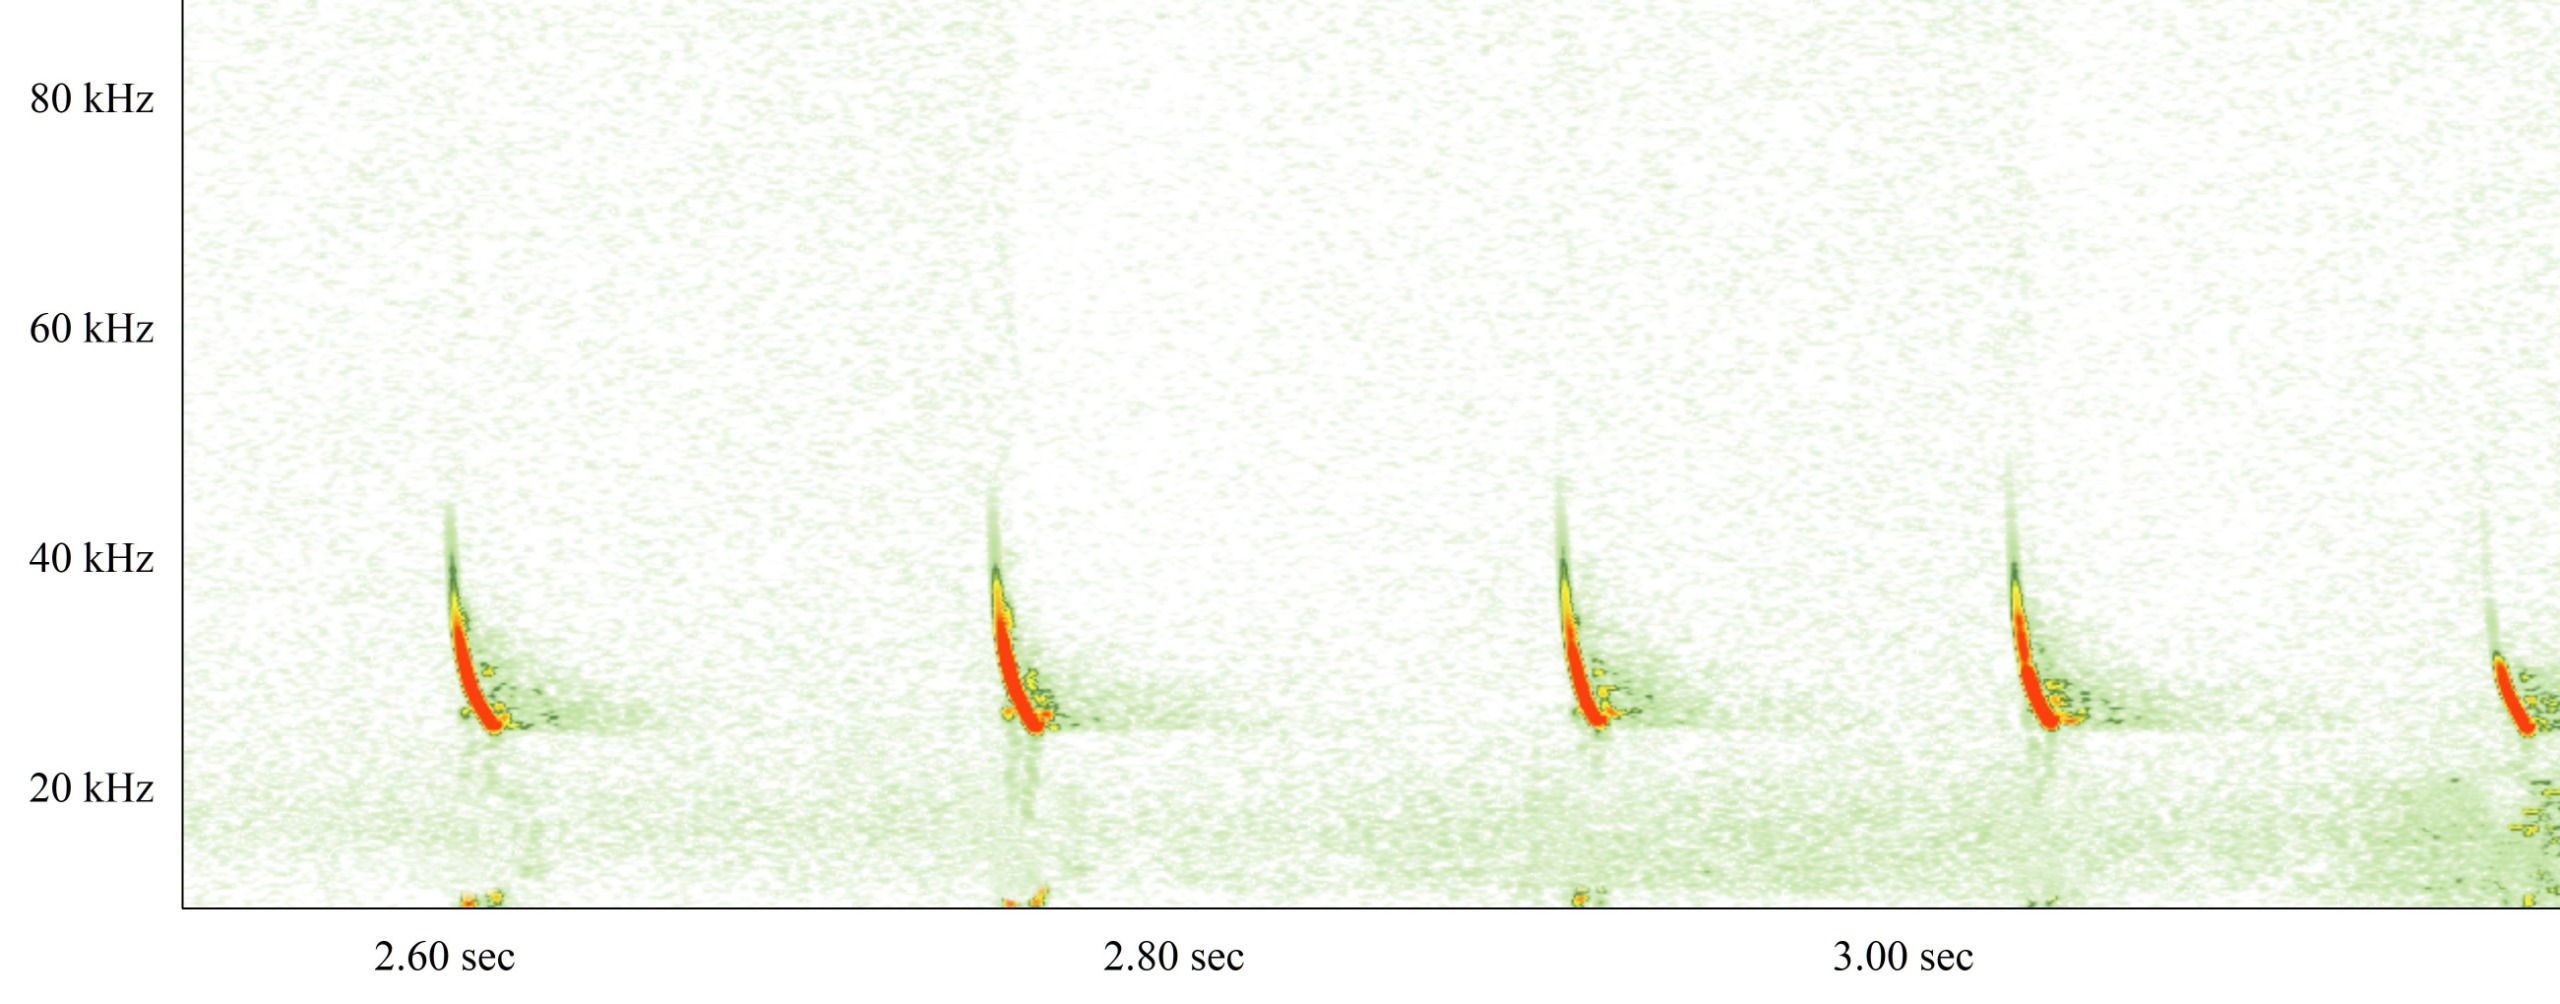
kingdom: Animalia
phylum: Chordata
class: Mammalia
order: Chiroptera
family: Vespertilionidae
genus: Eptesicus
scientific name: Eptesicus serotinus
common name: Sydflagermus
